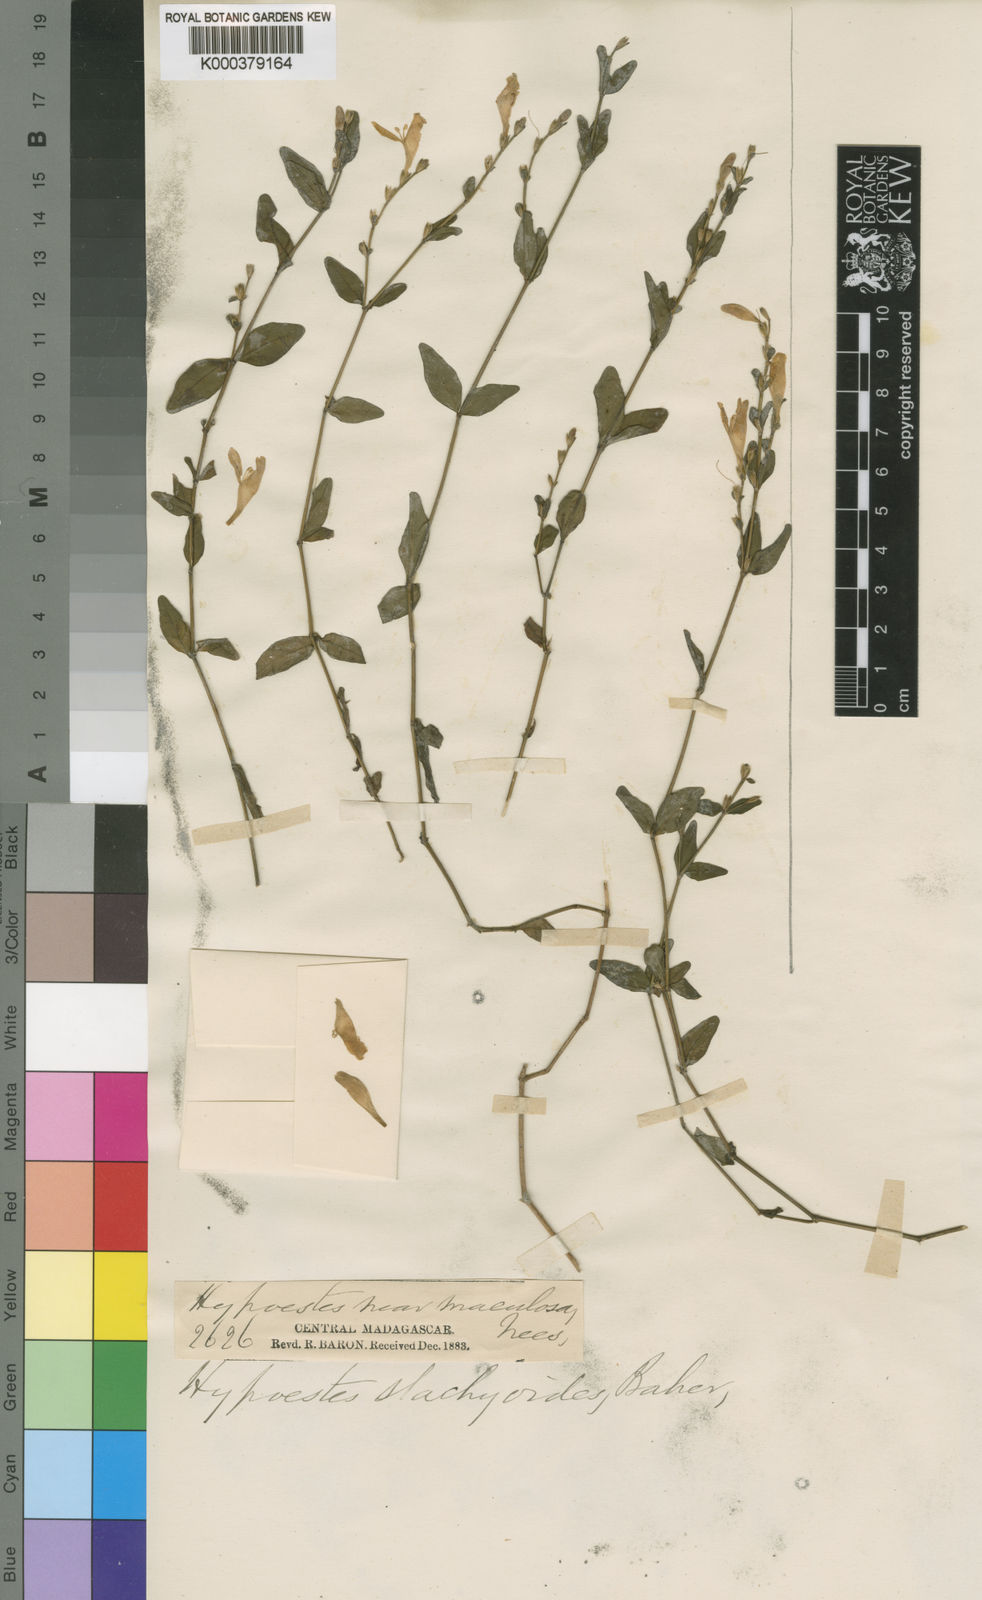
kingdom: Plantae
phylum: Tracheophyta
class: Magnoliopsida
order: Lamiales
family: Acanthaceae
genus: Hypoestes
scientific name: Hypoestes setigera
